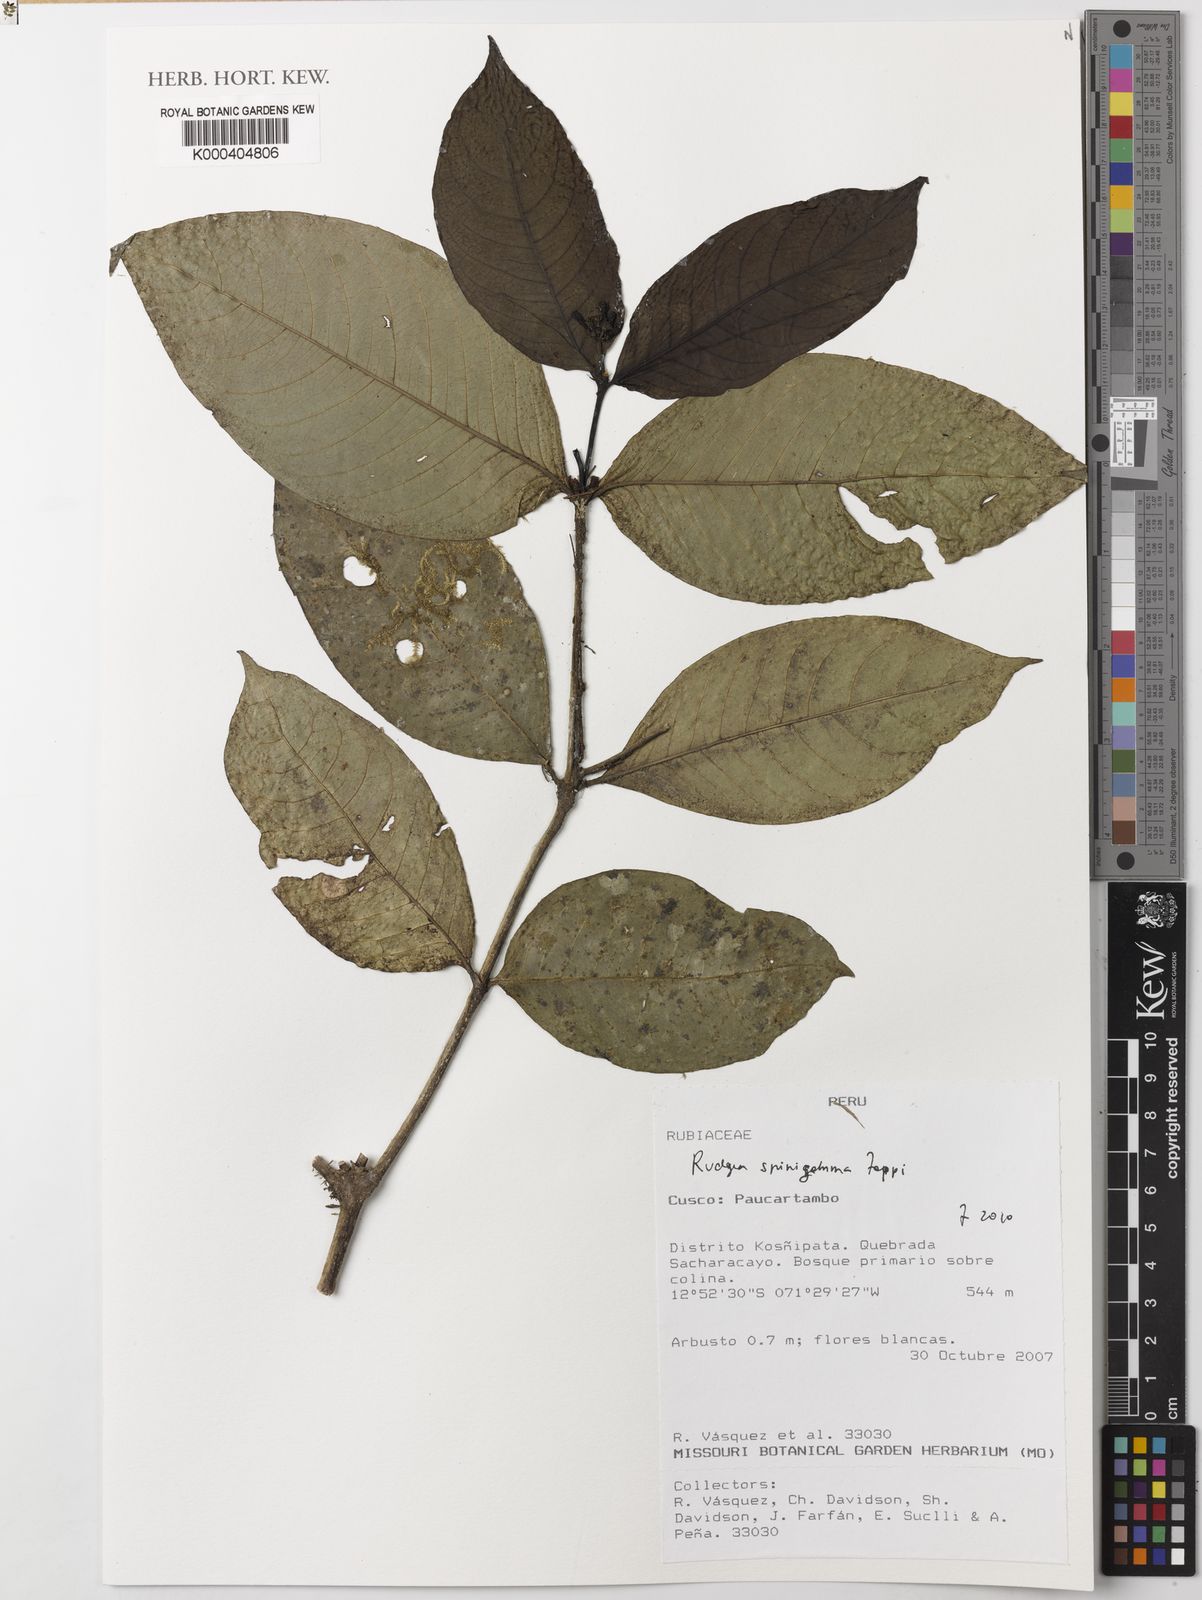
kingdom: Plantae
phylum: Tracheophyta
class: Magnoliopsida
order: Gentianales
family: Rubiaceae
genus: Rudgea
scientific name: Rudgea spinigemma
